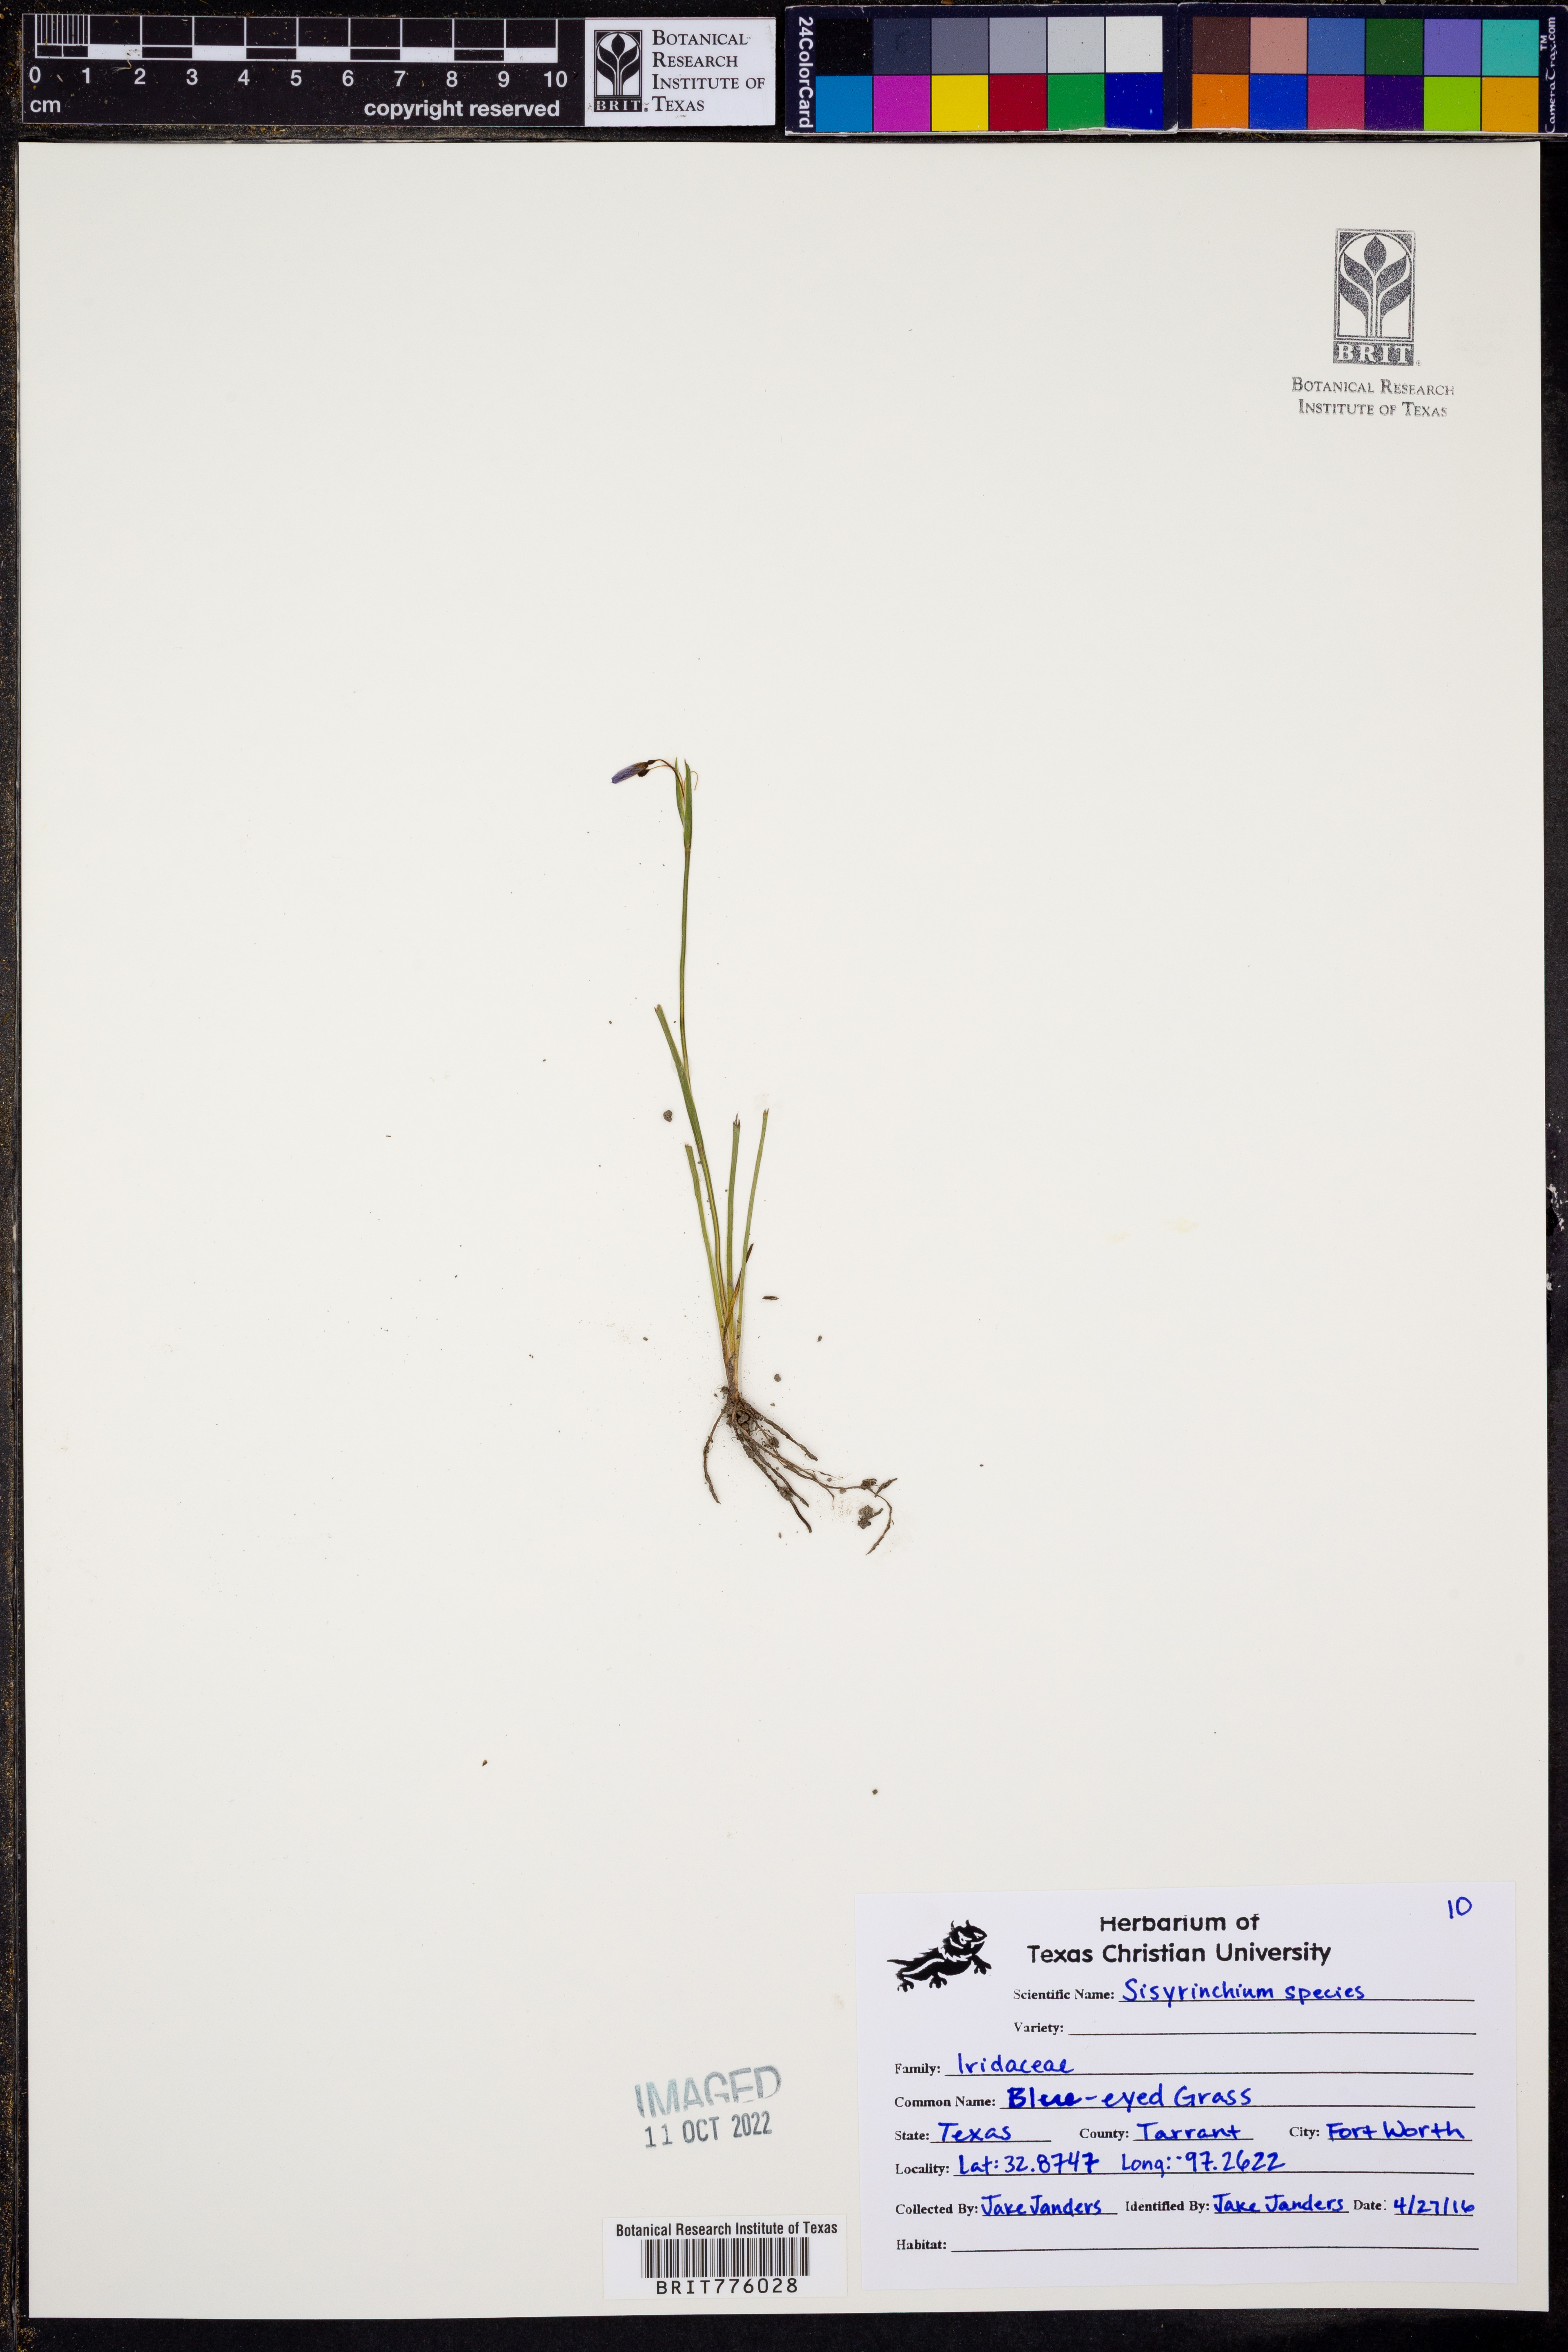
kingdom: Plantae
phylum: Tracheophyta
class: Liliopsida
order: Asparagales
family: Iridaceae
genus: Sisyrinchium
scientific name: Sisyrinchium
